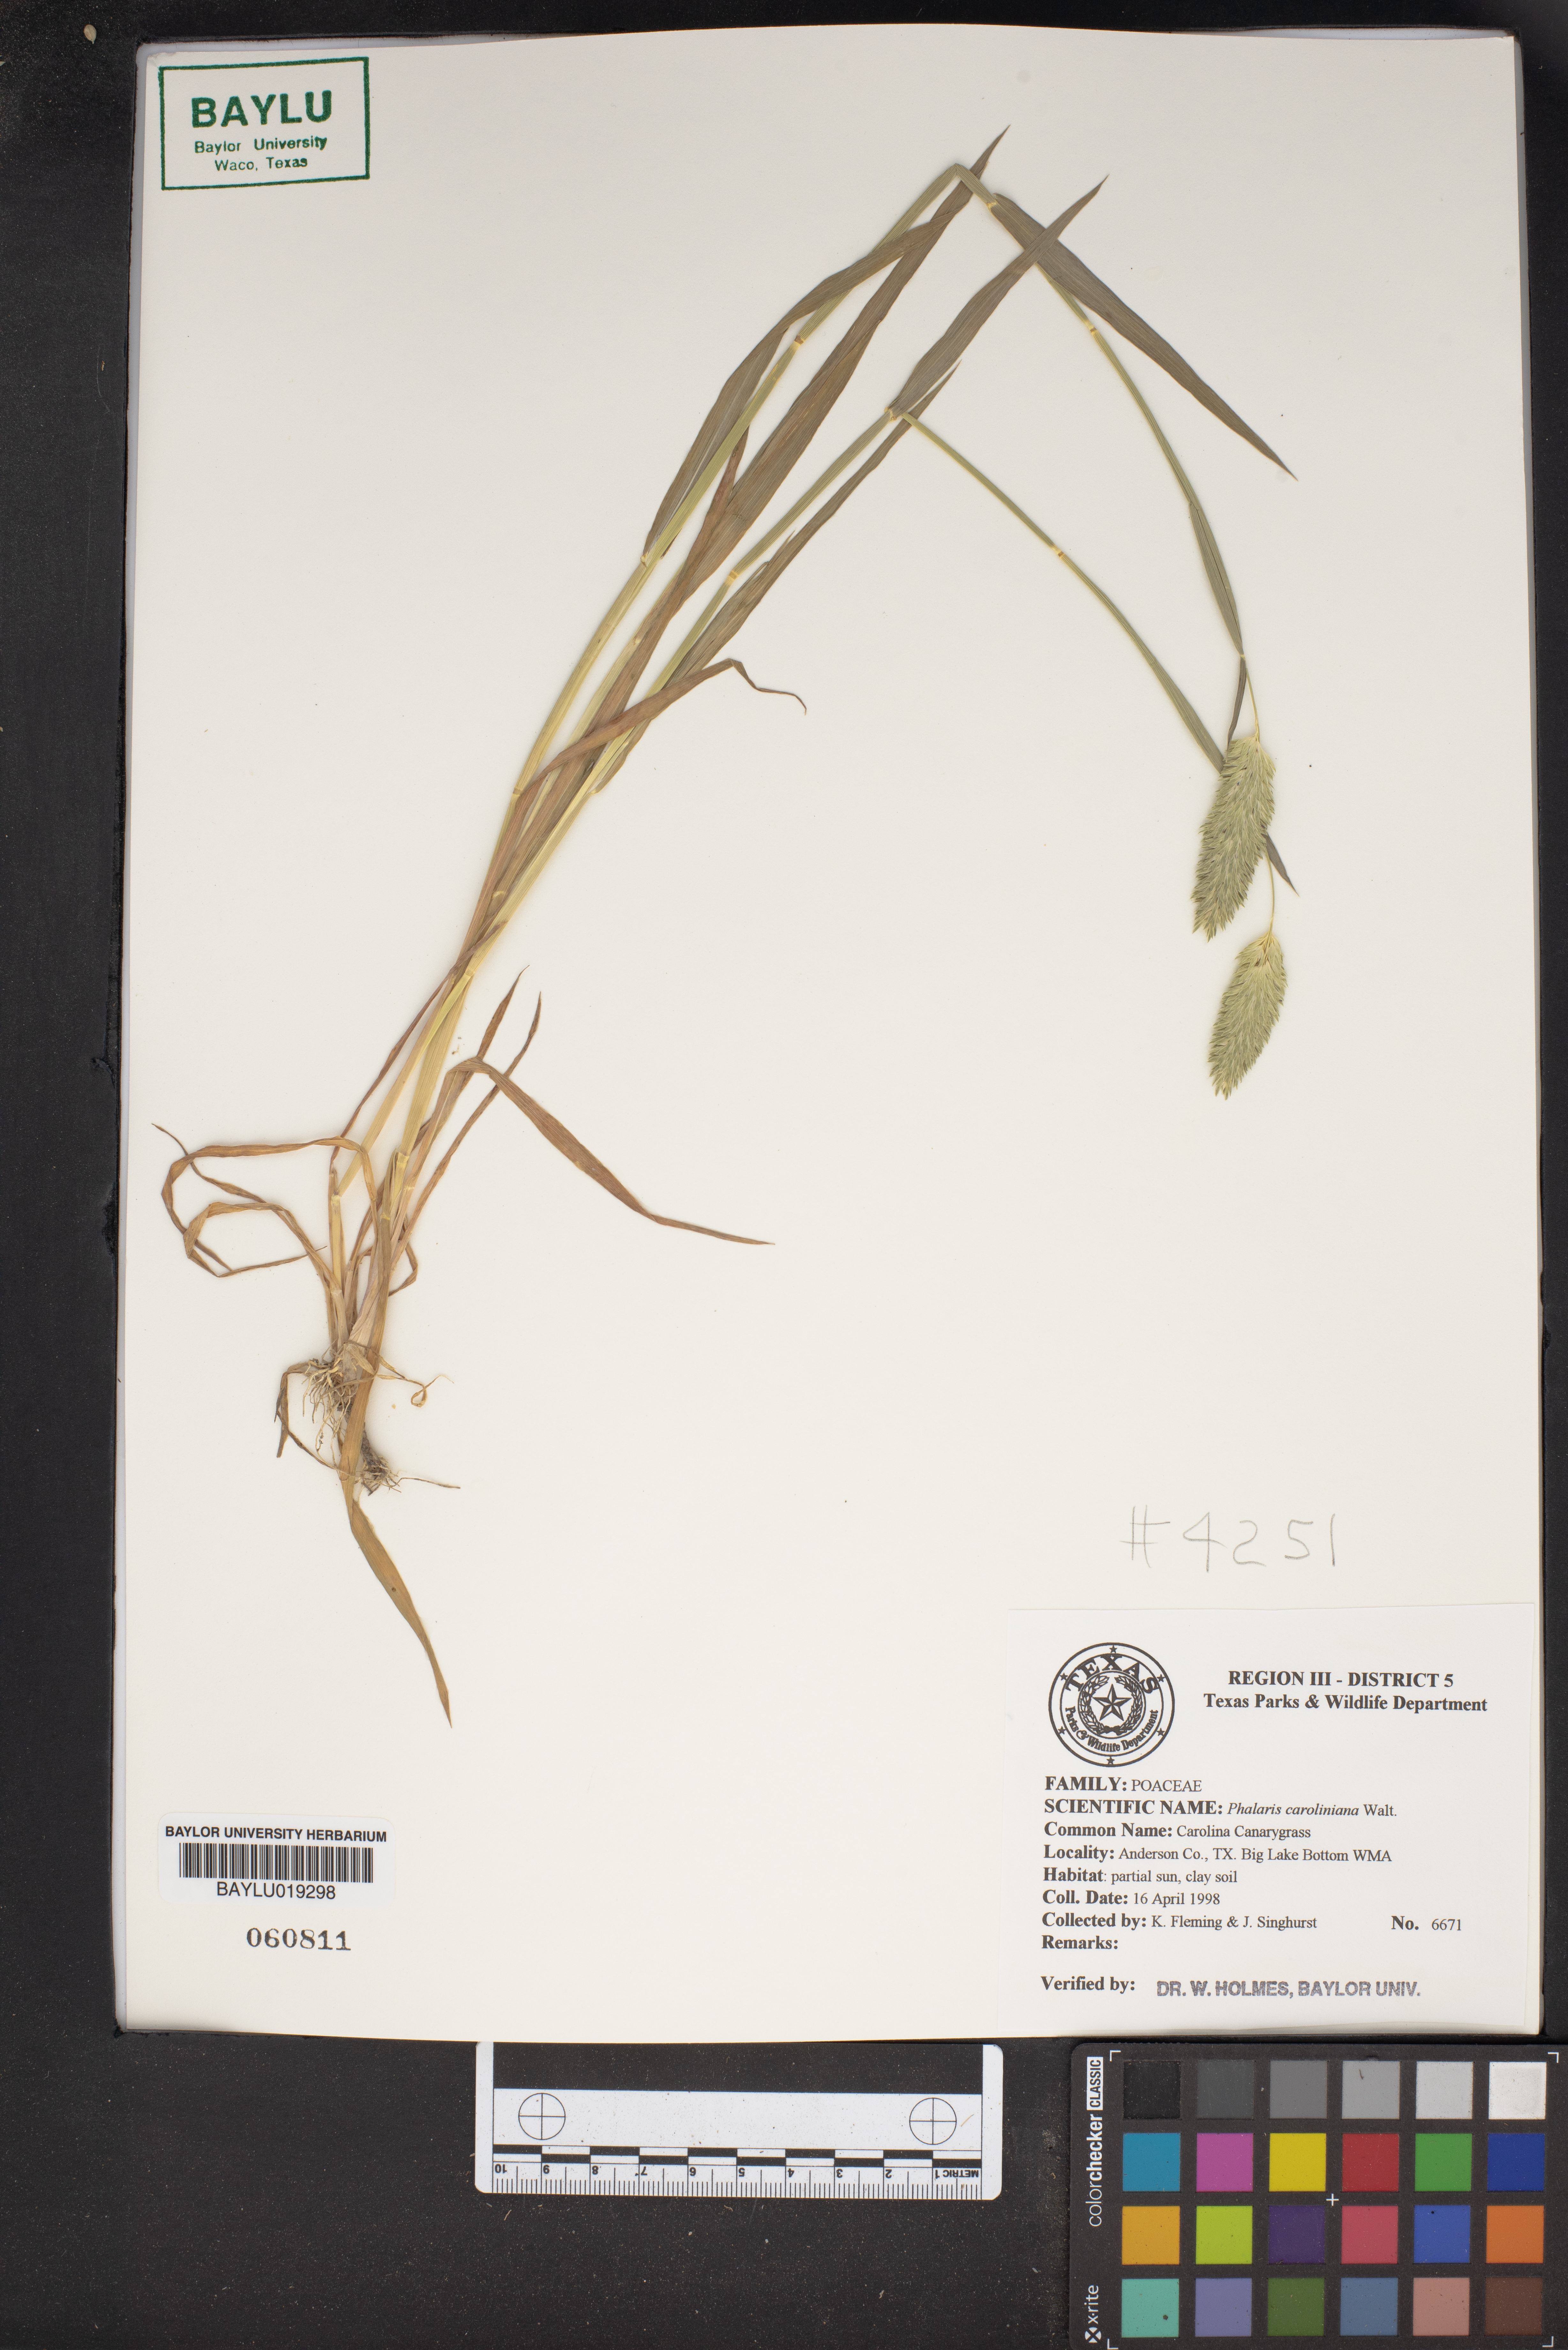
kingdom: Plantae
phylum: Tracheophyta
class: Liliopsida
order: Poales
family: Poaceae
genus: Phalaris
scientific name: Phalaris caroliniana
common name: May grass
